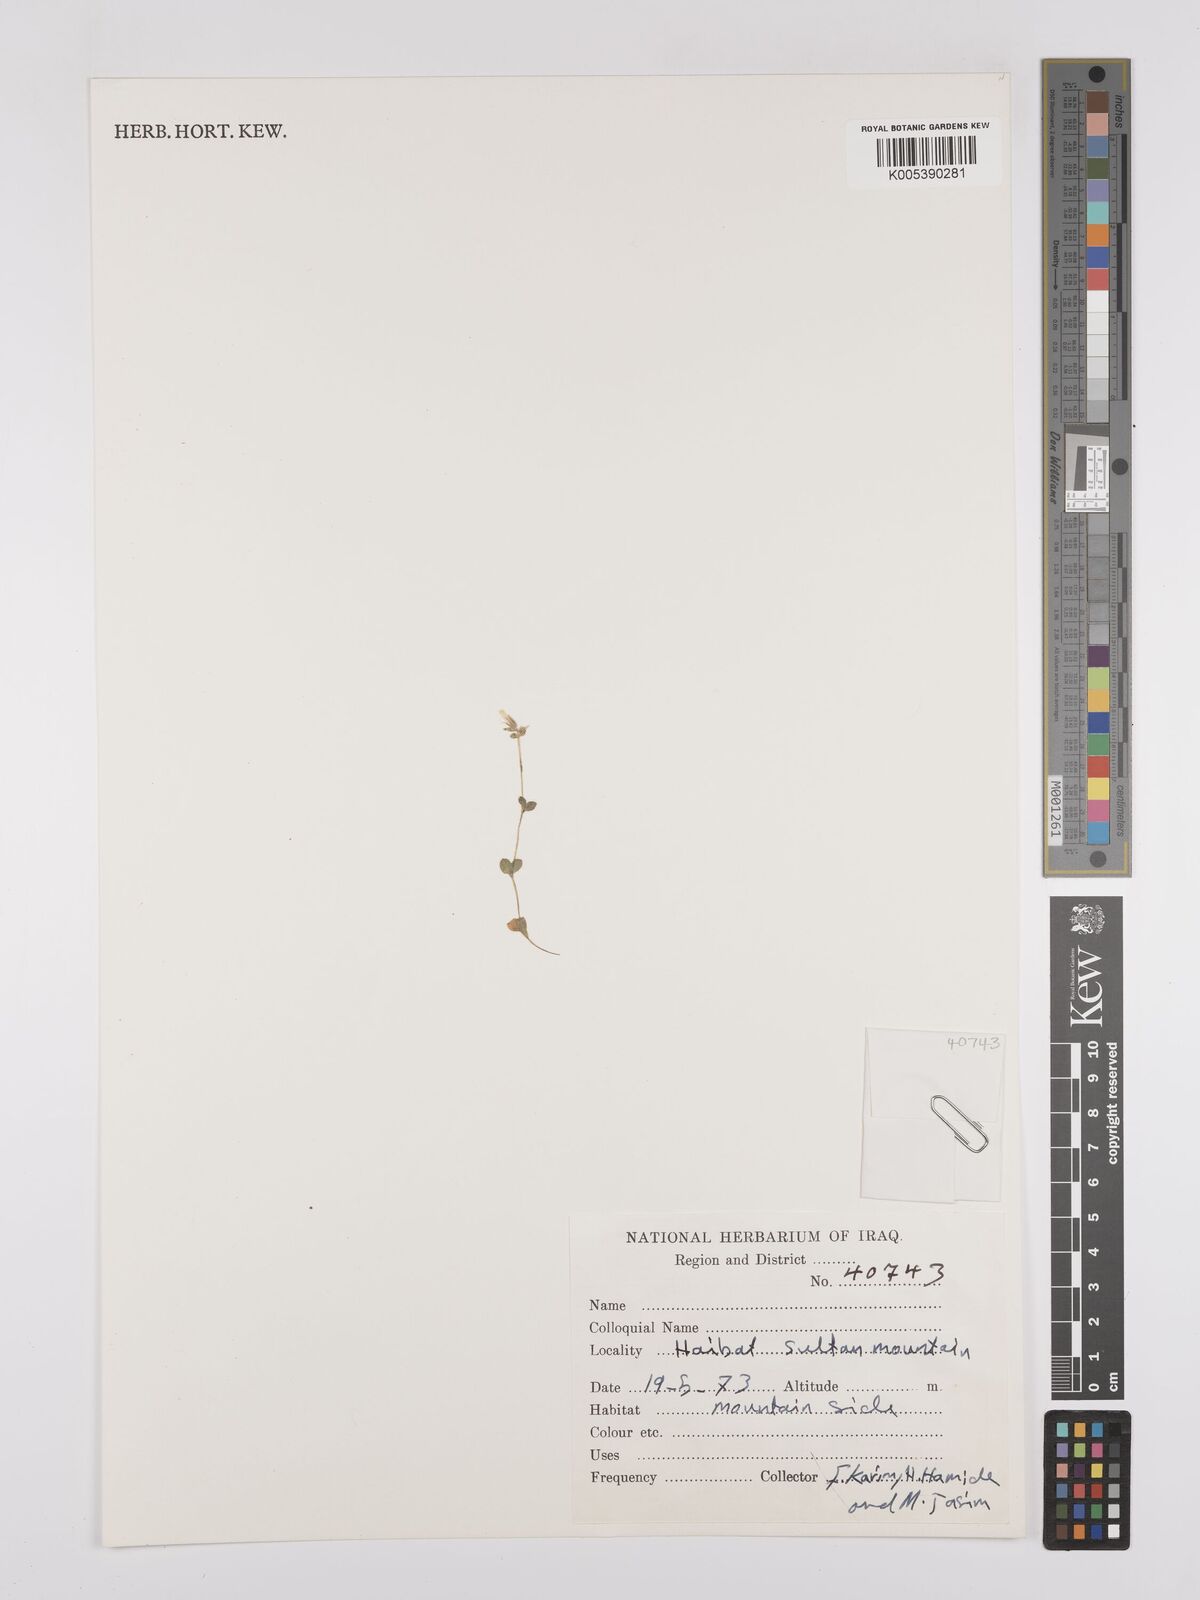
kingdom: Plantae
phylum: Tracheophyta
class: Magnoliopsida
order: Caryophyllales
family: Caryophyllaceae
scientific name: Caryophyllaceae
